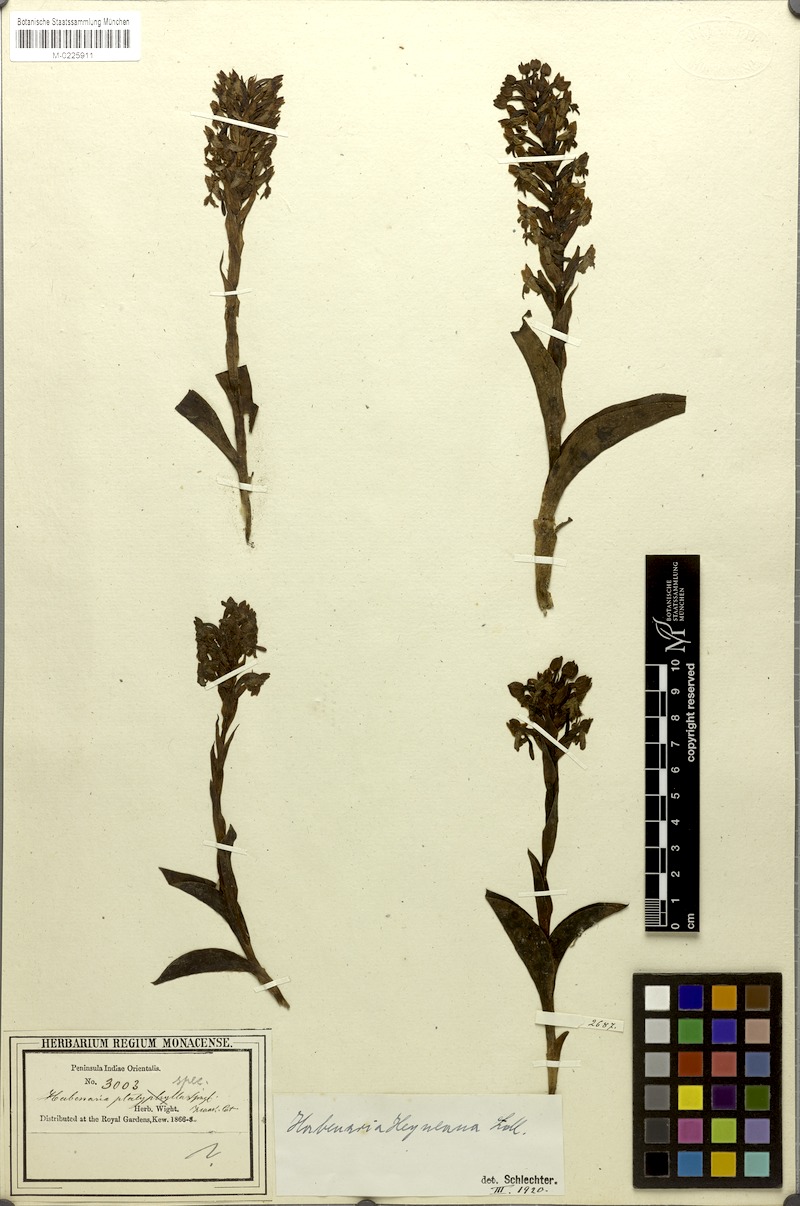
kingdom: Plantae
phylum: Tracheophyta
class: Liliopsida
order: Asparagales
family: Orchidaceae
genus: Habenaria
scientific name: Habenaria cephalotes
